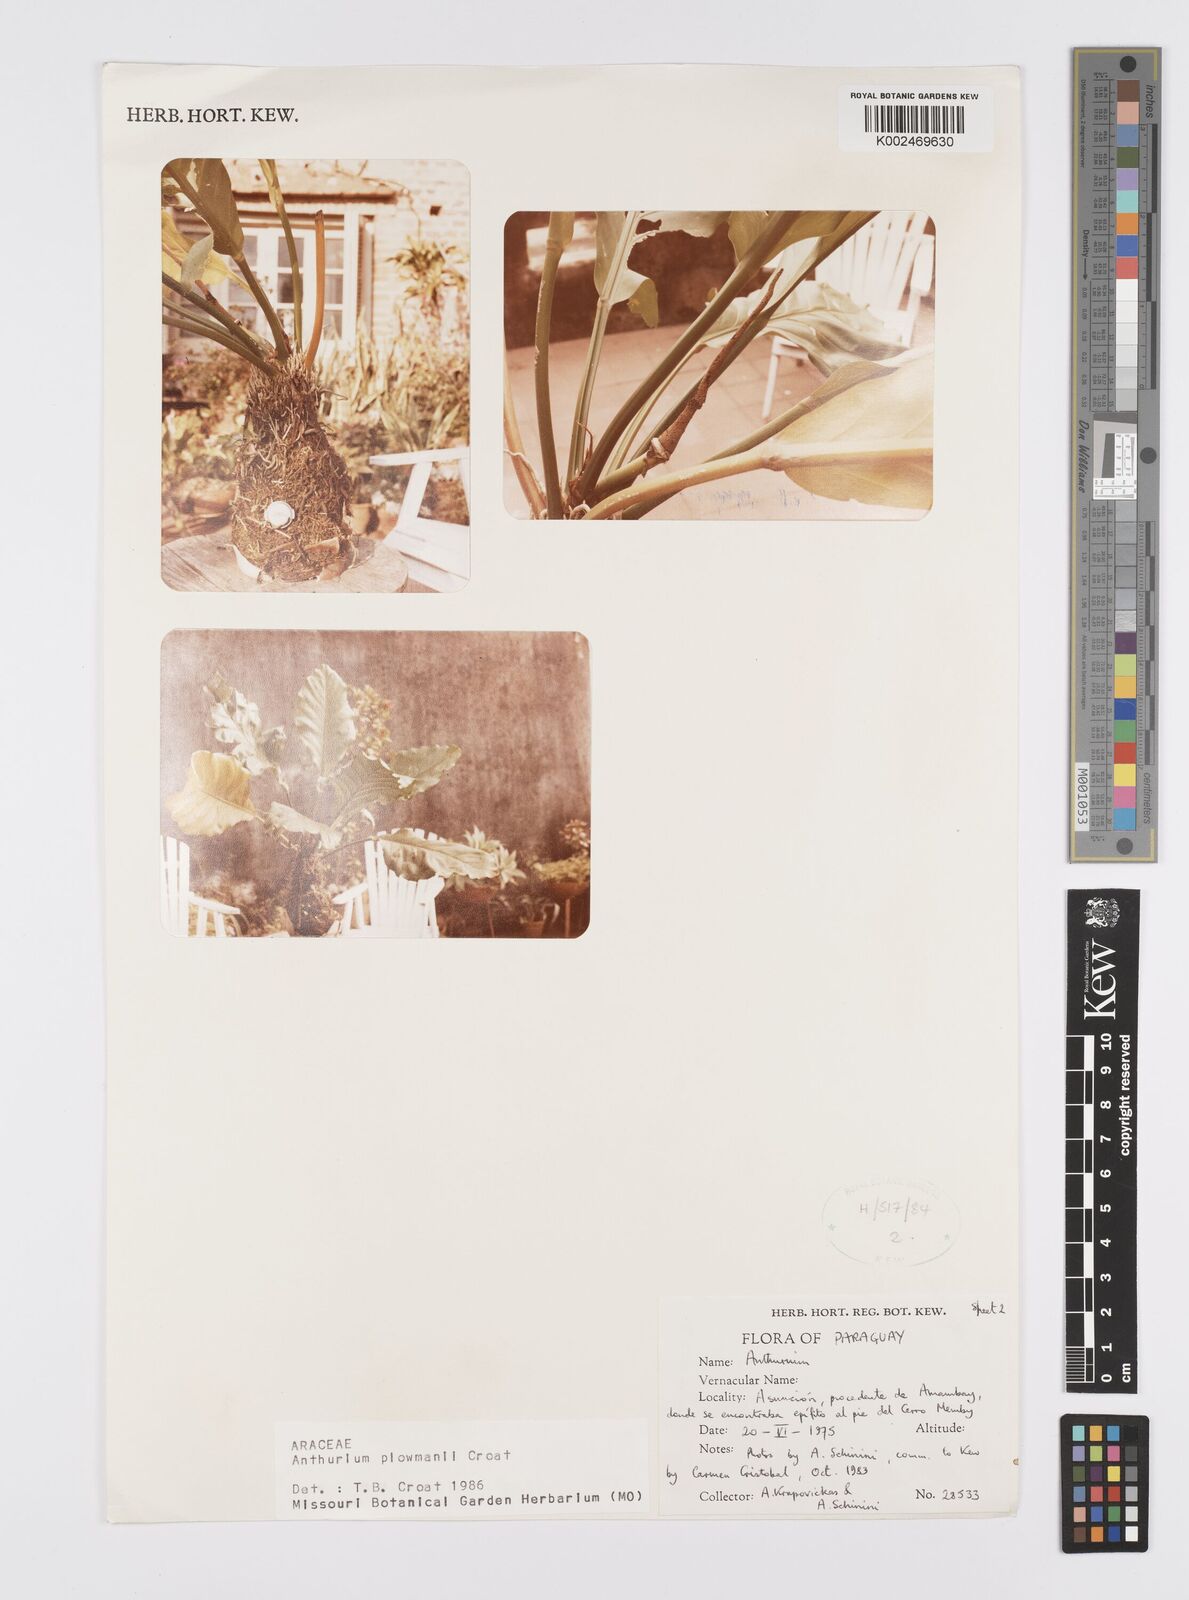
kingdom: Plantae
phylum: Tracheophyta
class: Liliopsida
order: Alismatales
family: Araceae
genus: Anthurium
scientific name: Anthurium plowmanii
